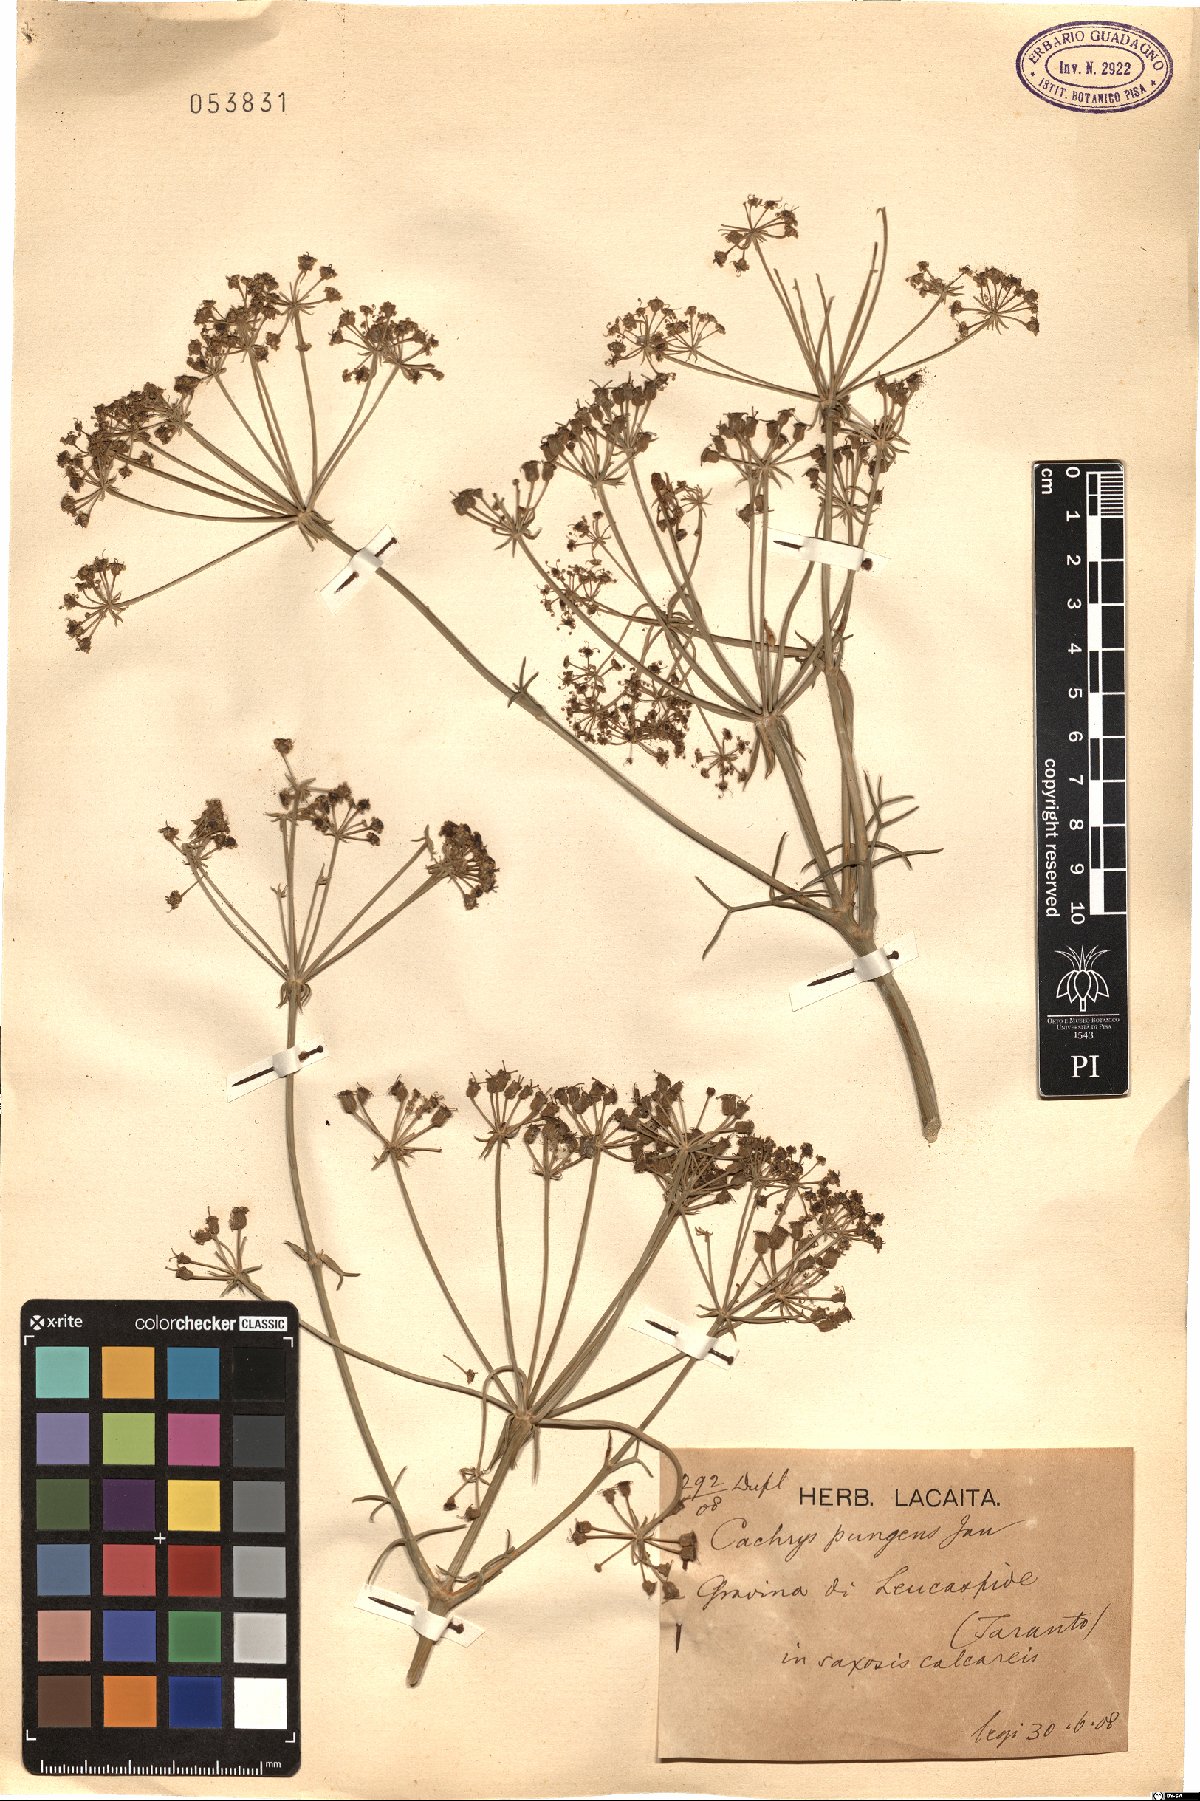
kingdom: Plantae
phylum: Tracheophyta
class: Magnoliopsida
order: Apiales
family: Apiaceae
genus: Cachrys
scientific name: Cachrys pungens
